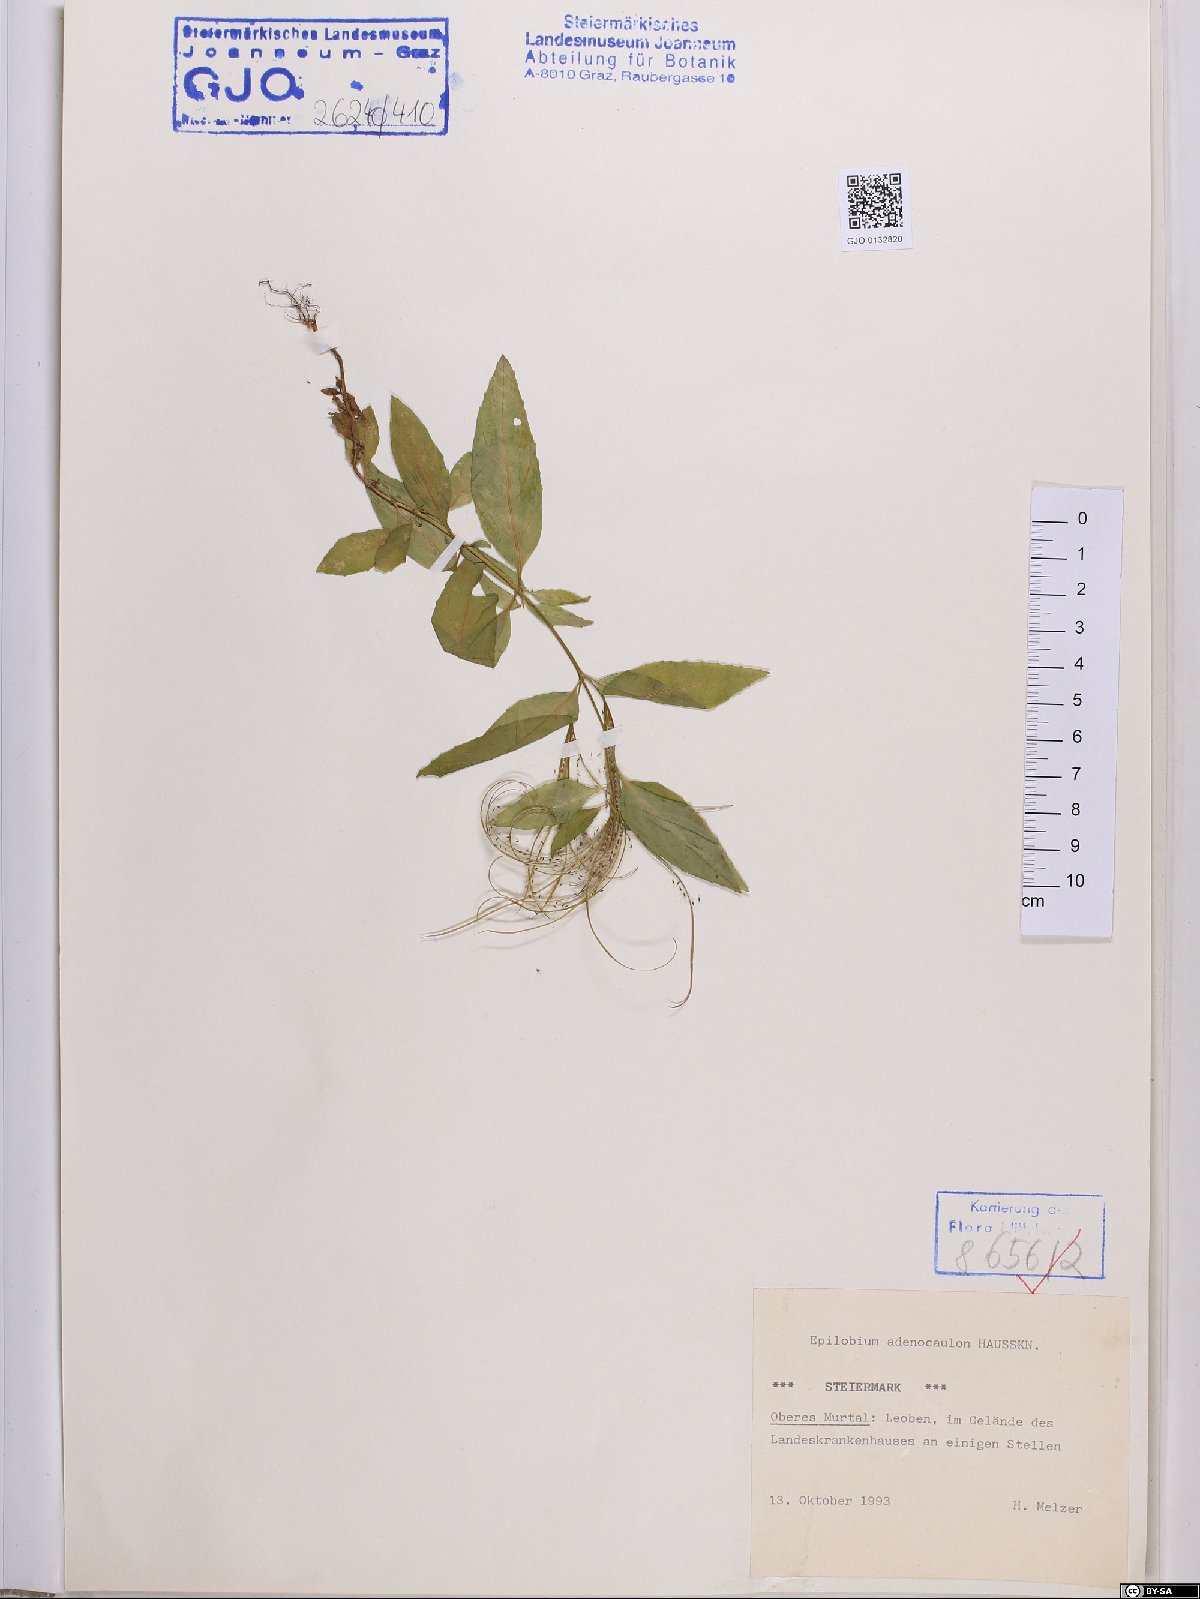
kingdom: Plantae
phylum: Tracheophyta
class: Magnoliopsida
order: Myrtales
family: Onagraceae
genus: Epilobium
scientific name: Epilobium ciliatum
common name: American willowherb
